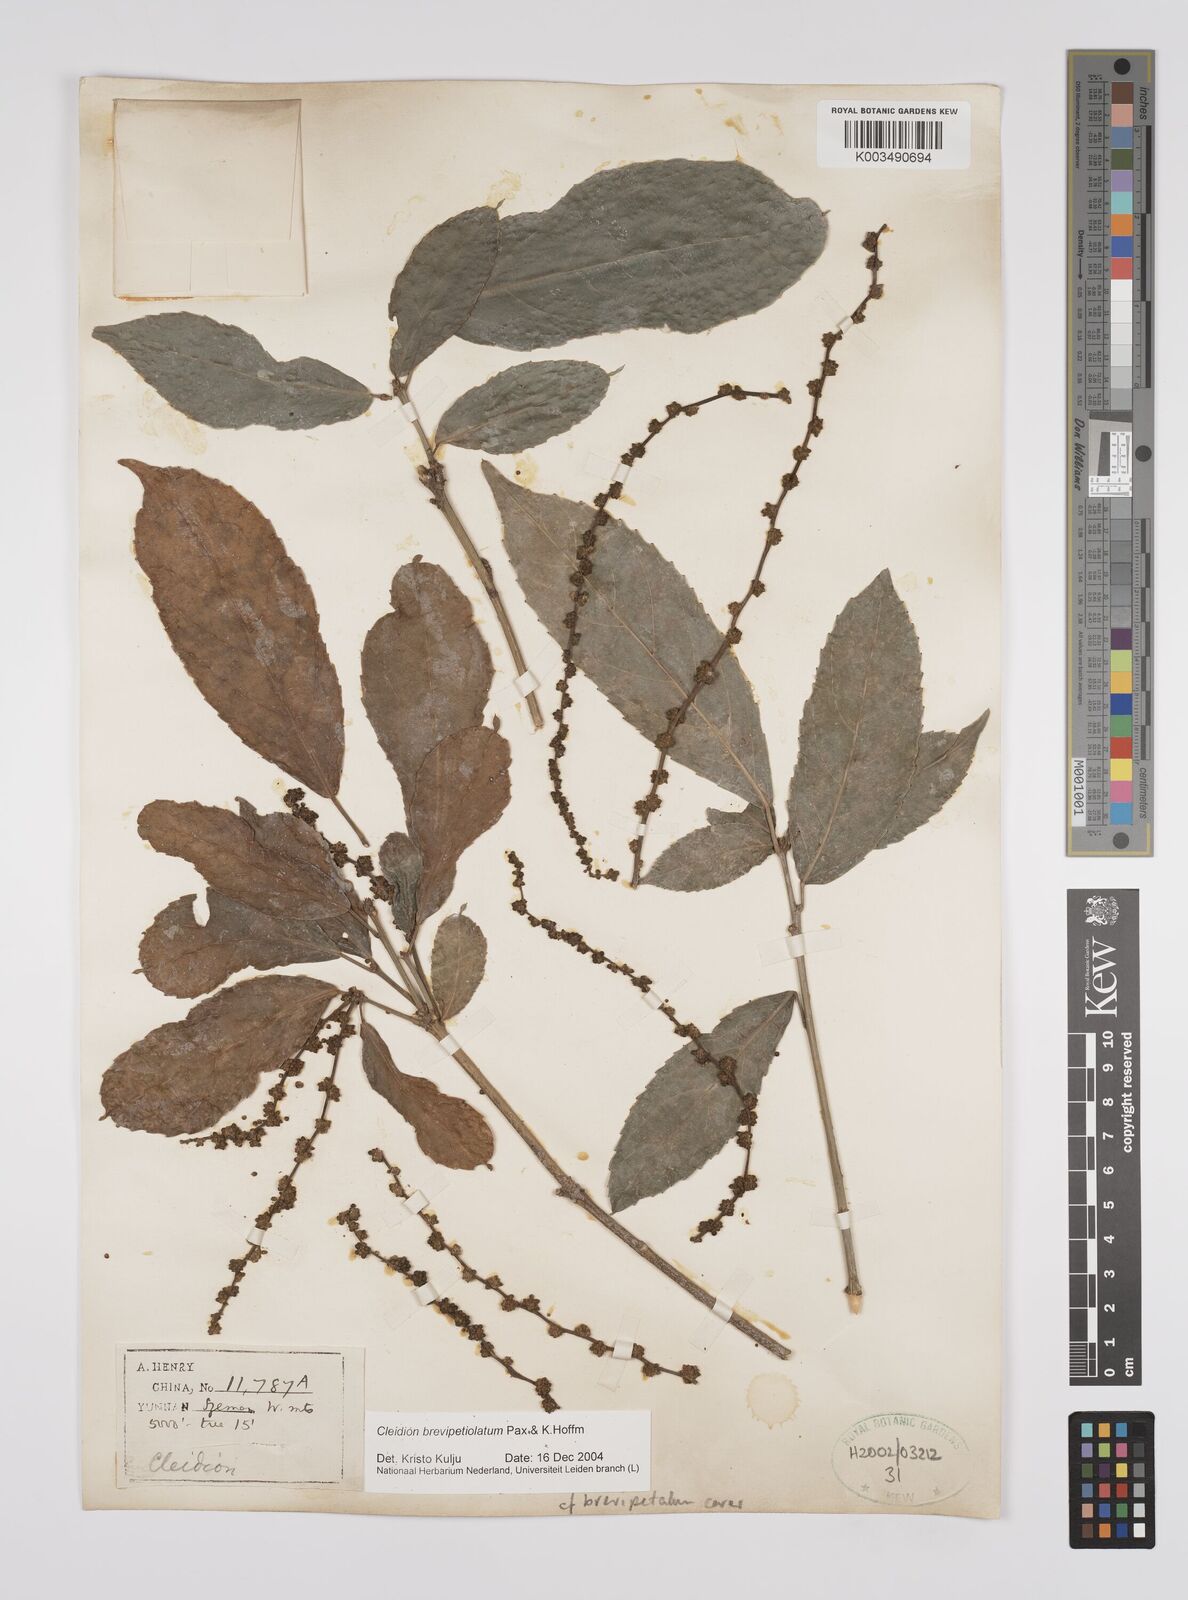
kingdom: Plantae
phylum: Tracheophyta
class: Magnoliopsida
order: Malpighiales
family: Euphorbiaceae
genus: Cleidion
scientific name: Cleidion brevipetiolatum
